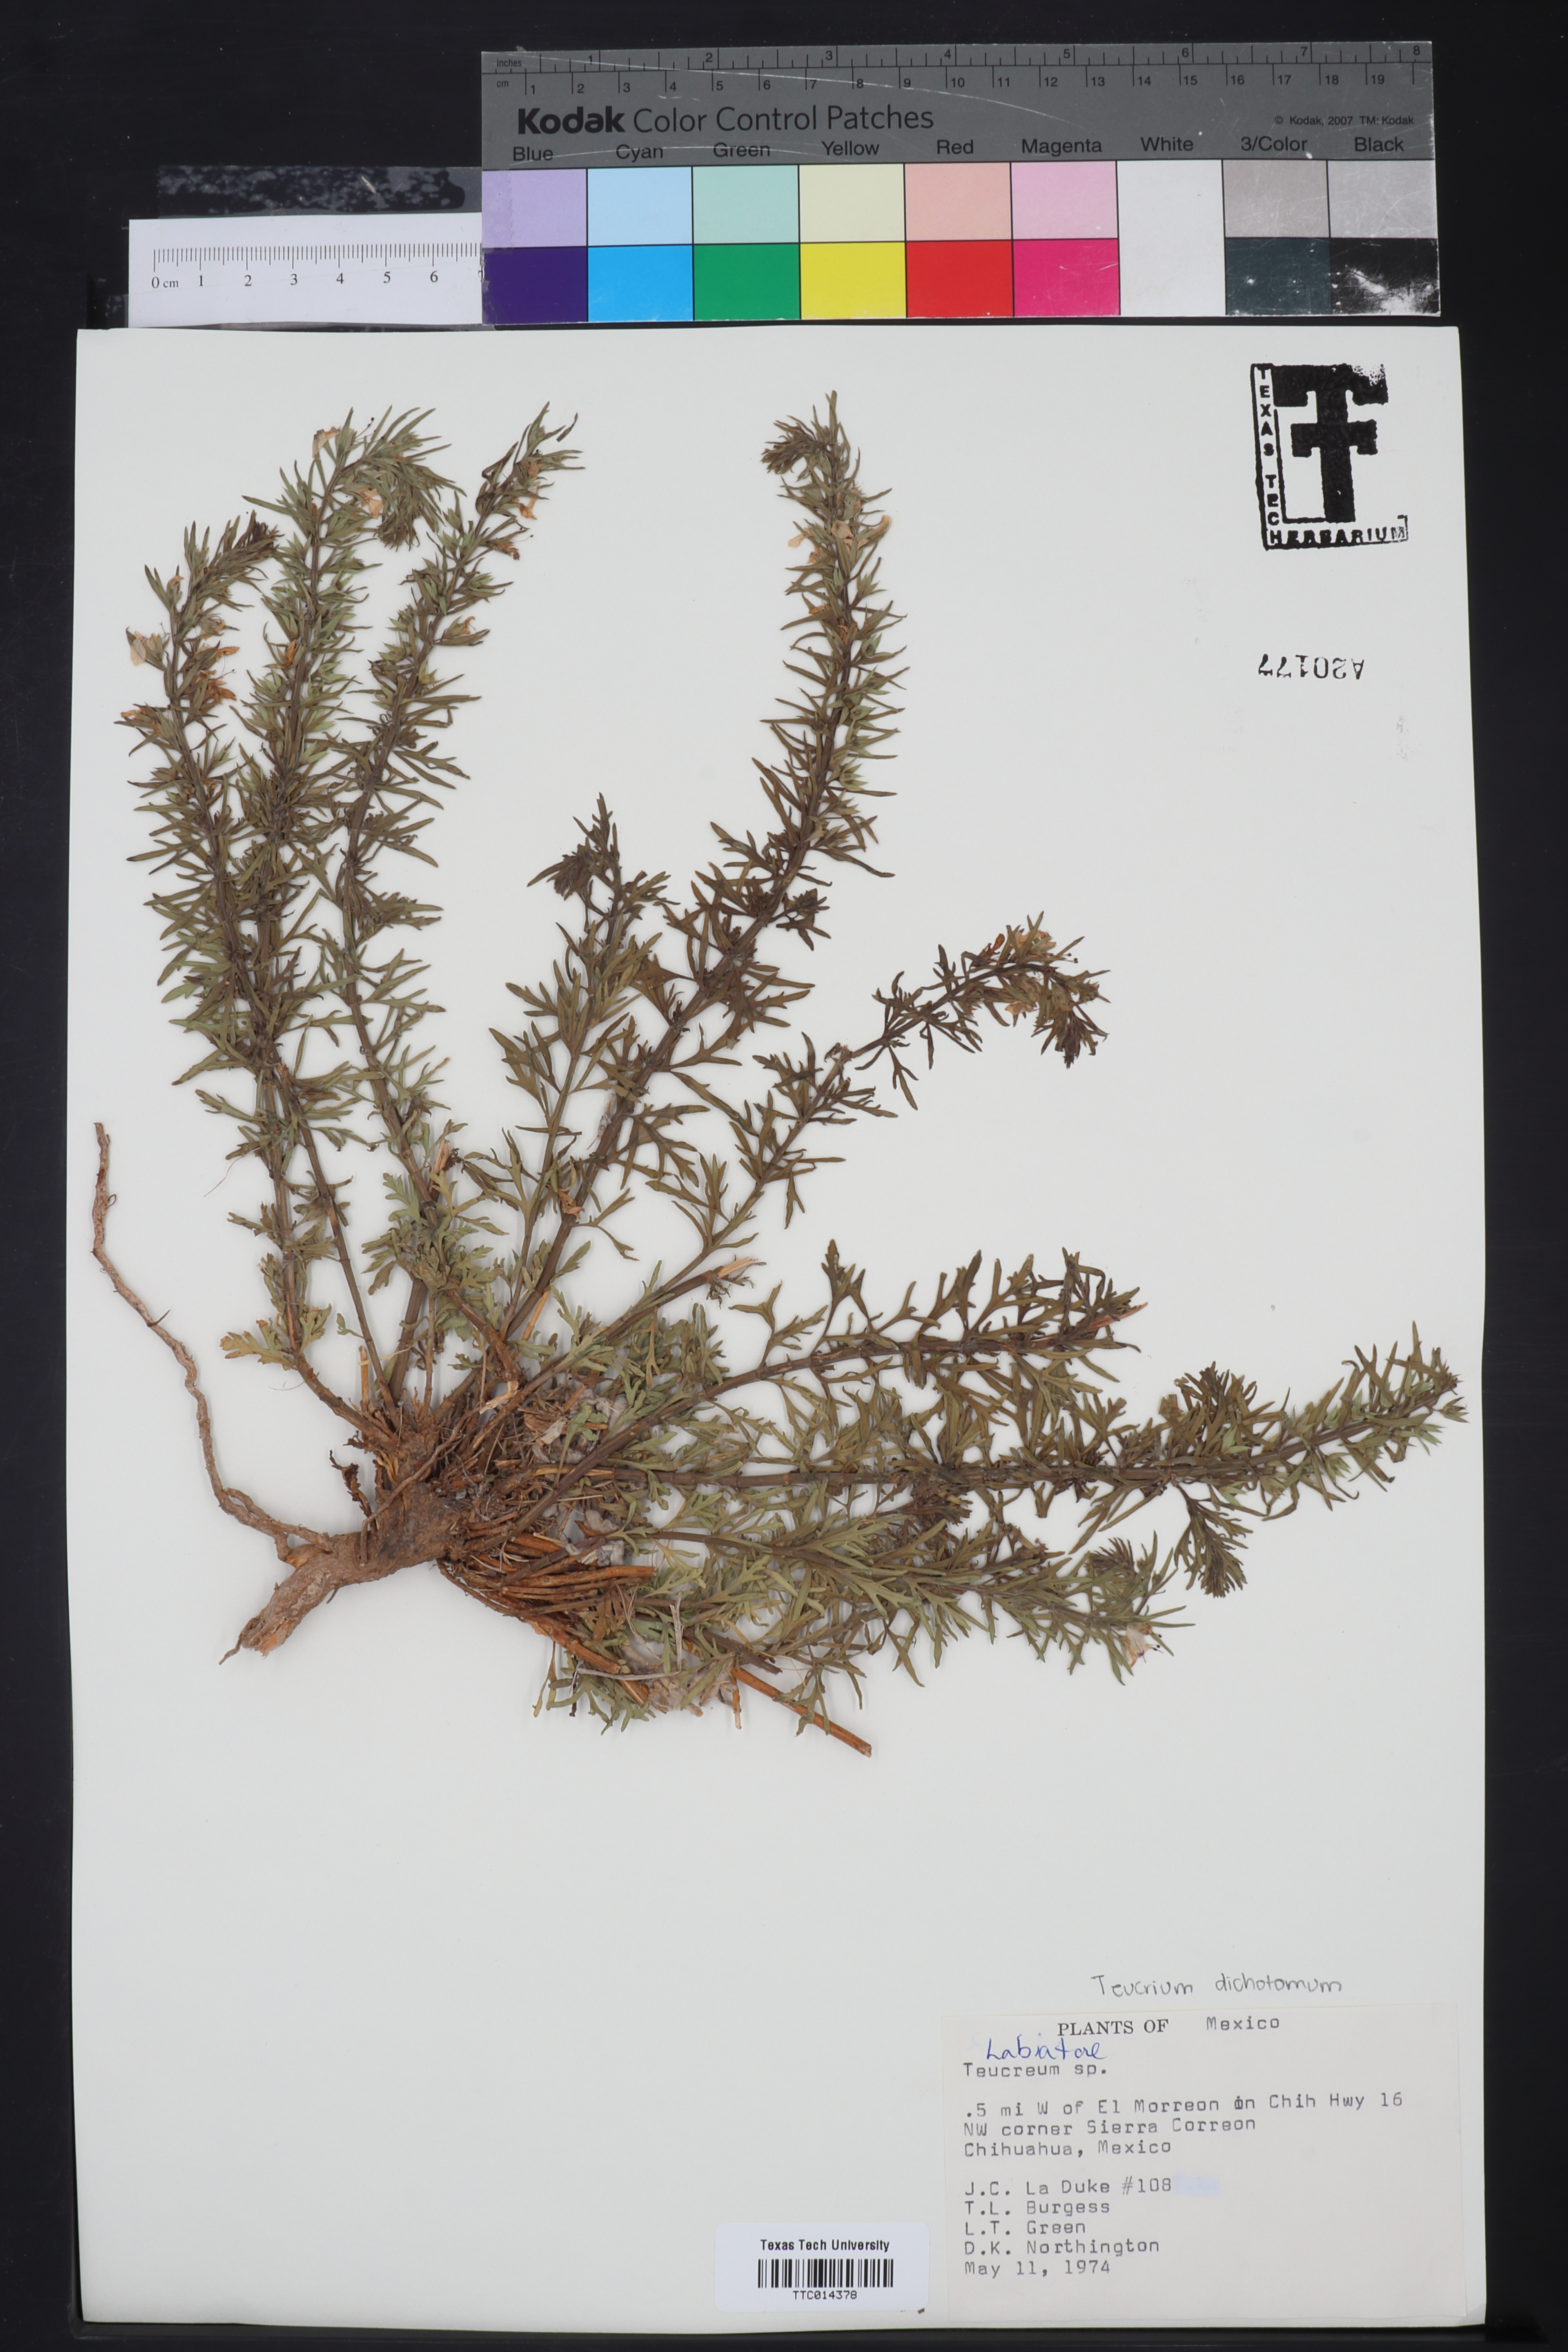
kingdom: Plantae
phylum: Tracheophyta
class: Magnoliopsida
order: Lamiales
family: Lamiaceae
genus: Teucrium
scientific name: Teucrium
